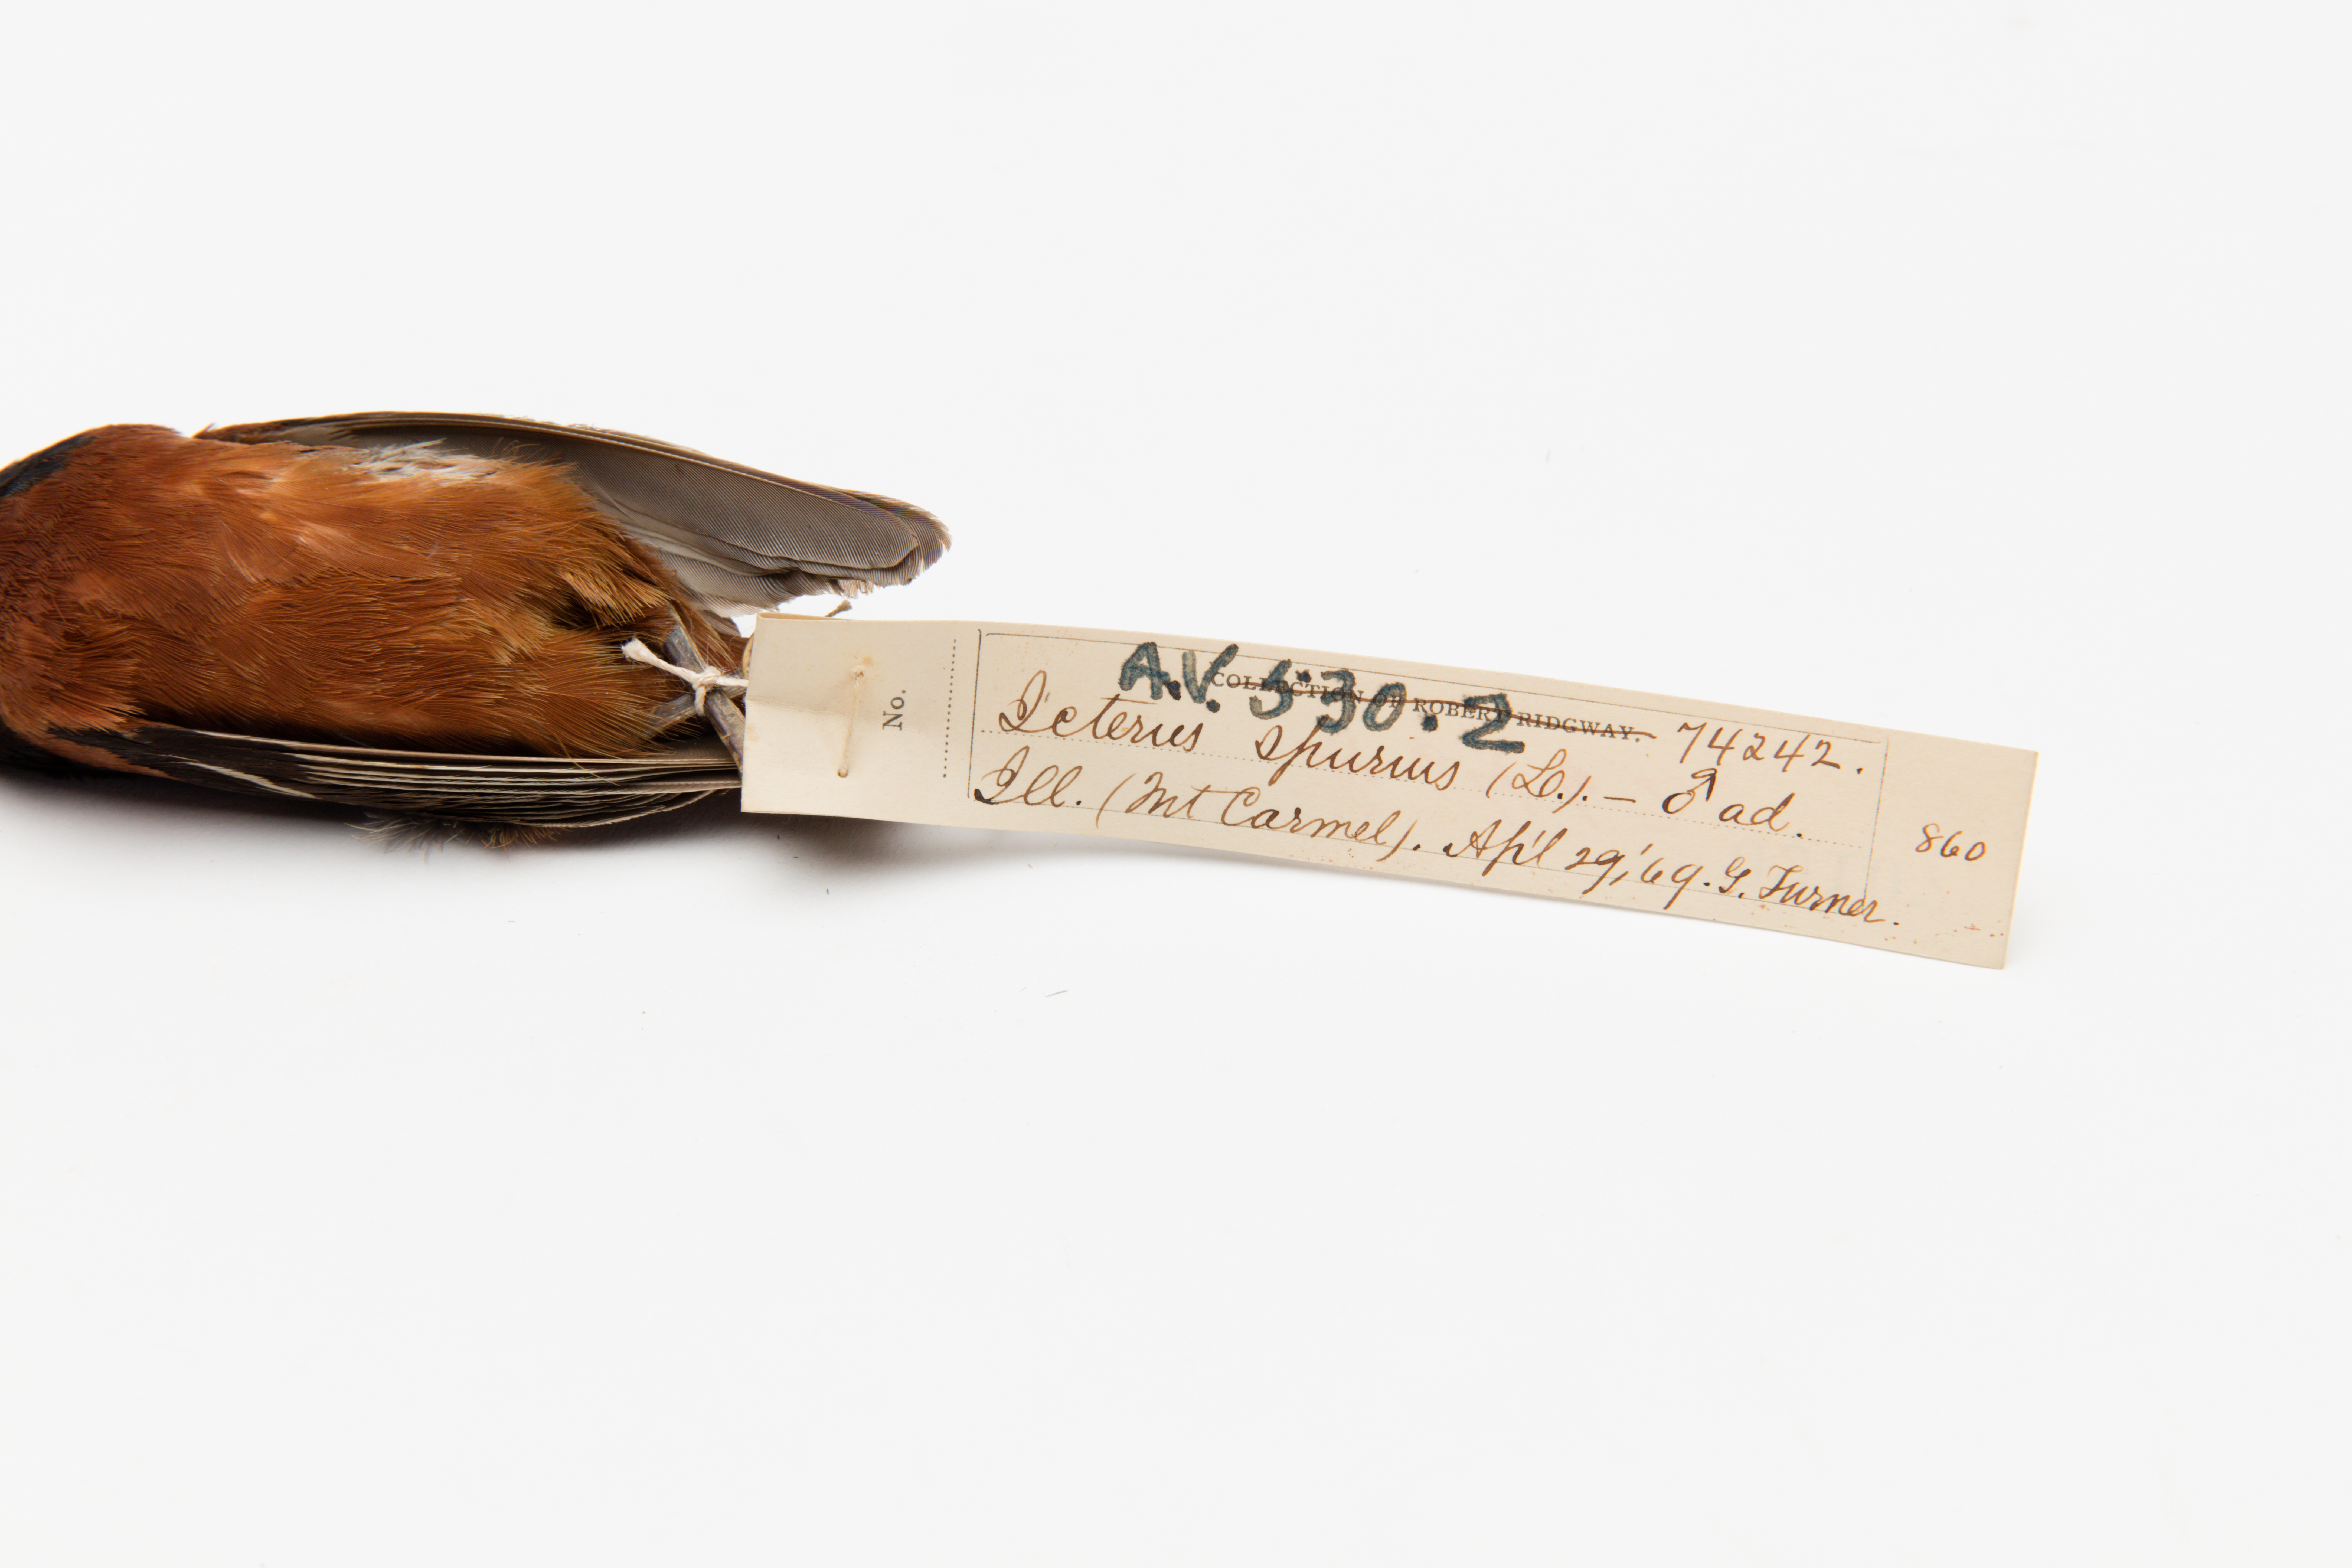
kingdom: Animalia
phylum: Chordata
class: Aves
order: Passeriformes
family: Icteridae
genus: Icterus
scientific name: Icterus spurius
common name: Orchard oriole
